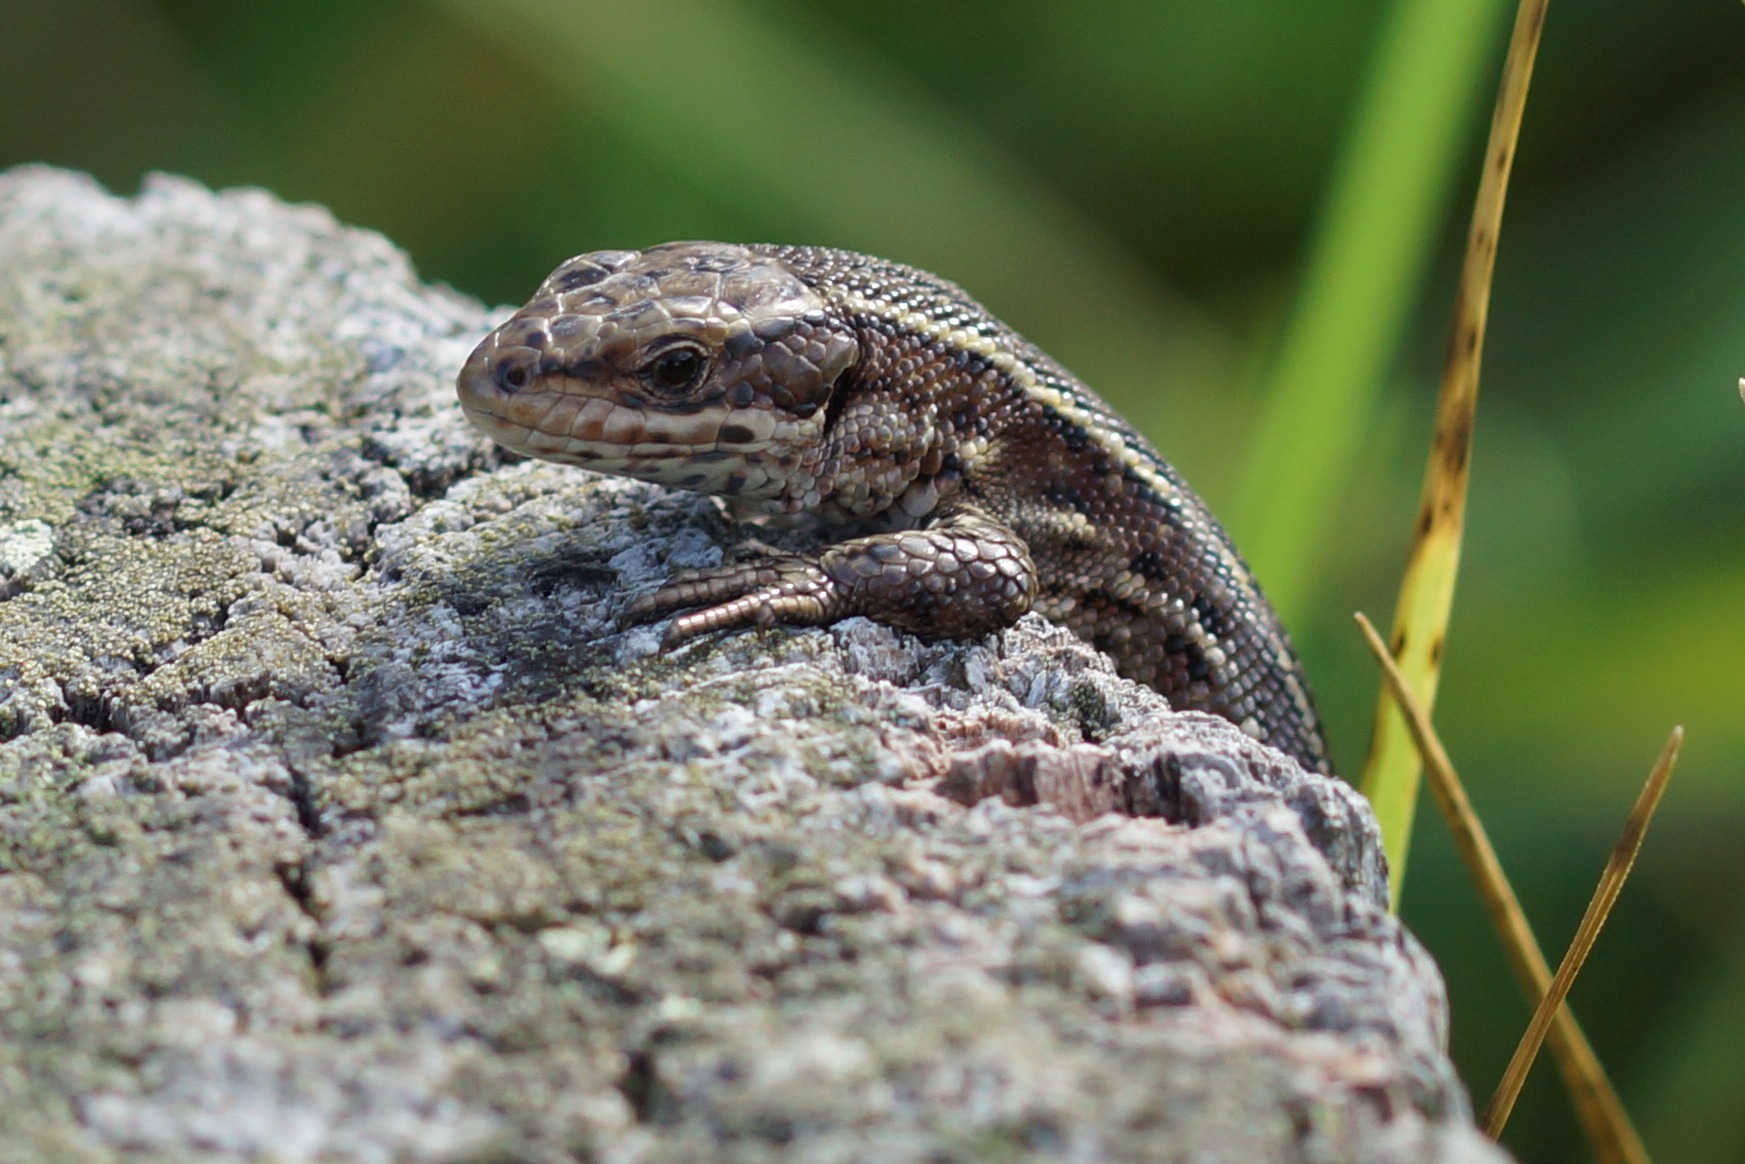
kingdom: Animalia
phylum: Chordata
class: Squamata
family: Lacertidae
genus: Zootoca
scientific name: Zootoca vivipara
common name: Skovfirben
